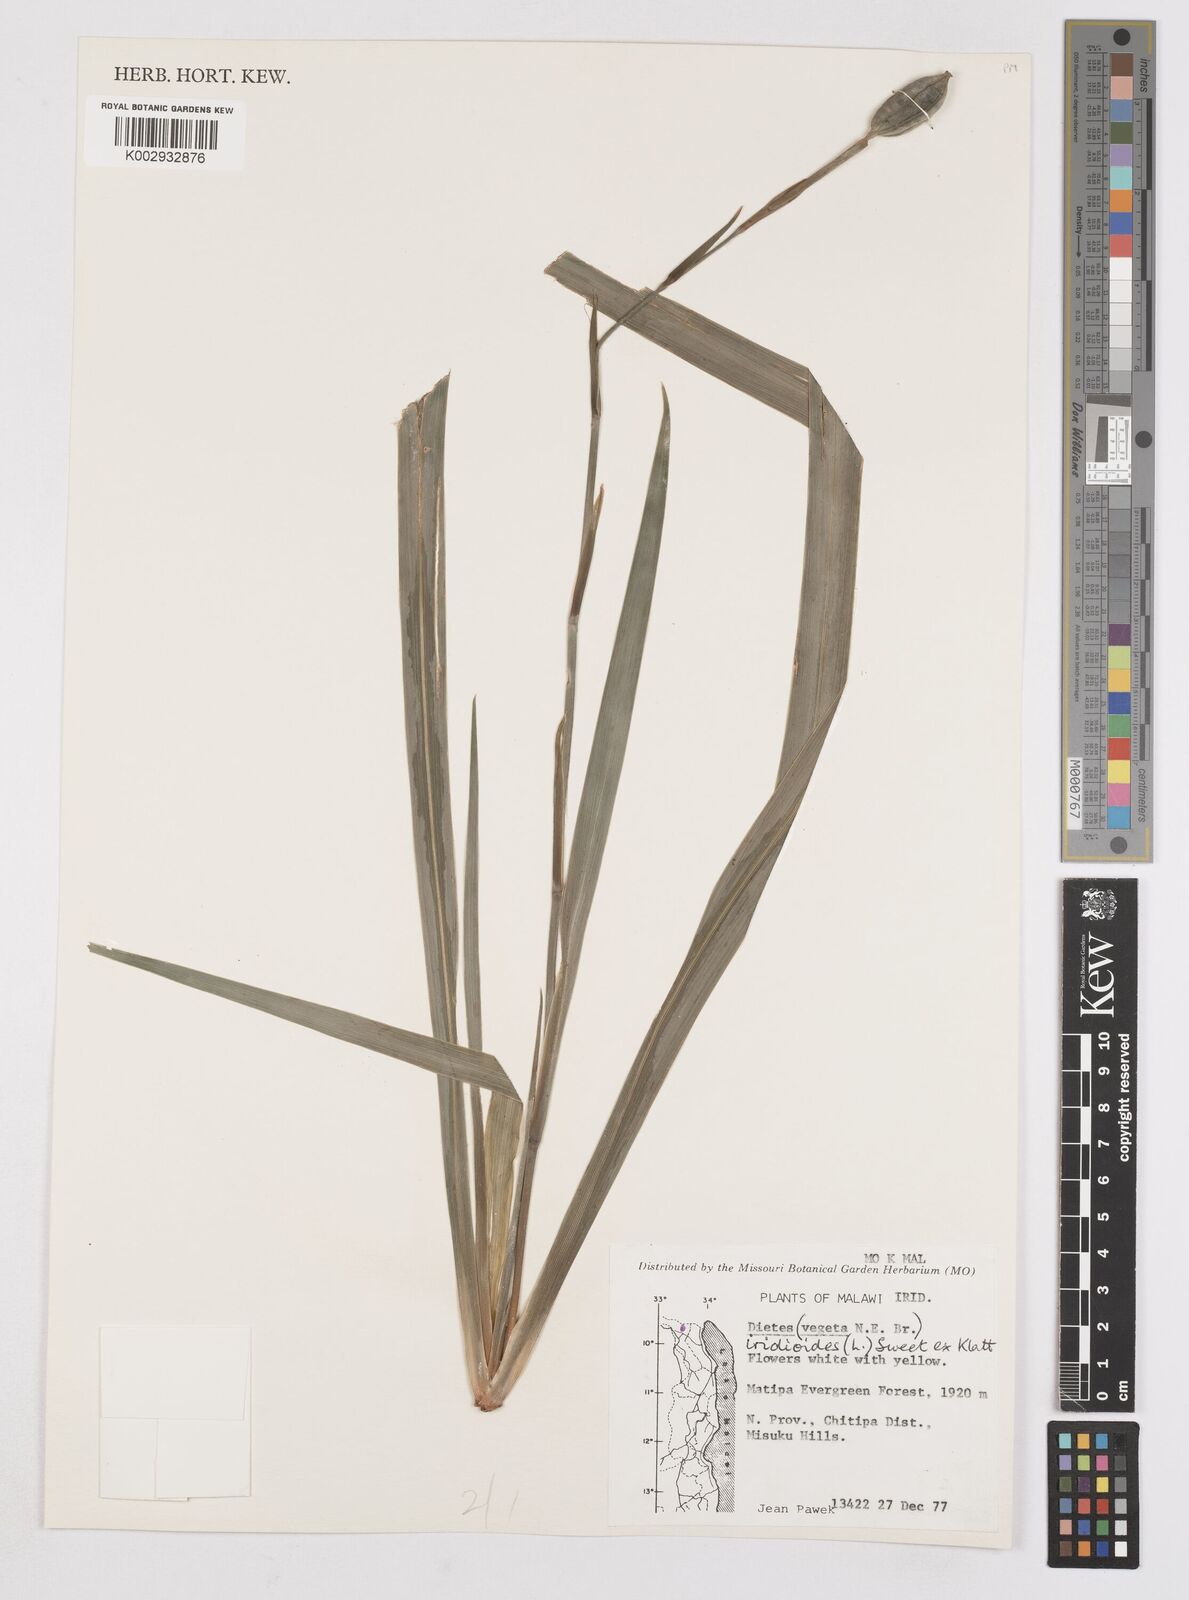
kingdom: Plantae
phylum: Tracheophyta
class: Liliopsida
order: Asparagales
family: Iridaceae
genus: Dietes
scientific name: Dietes iridioides
